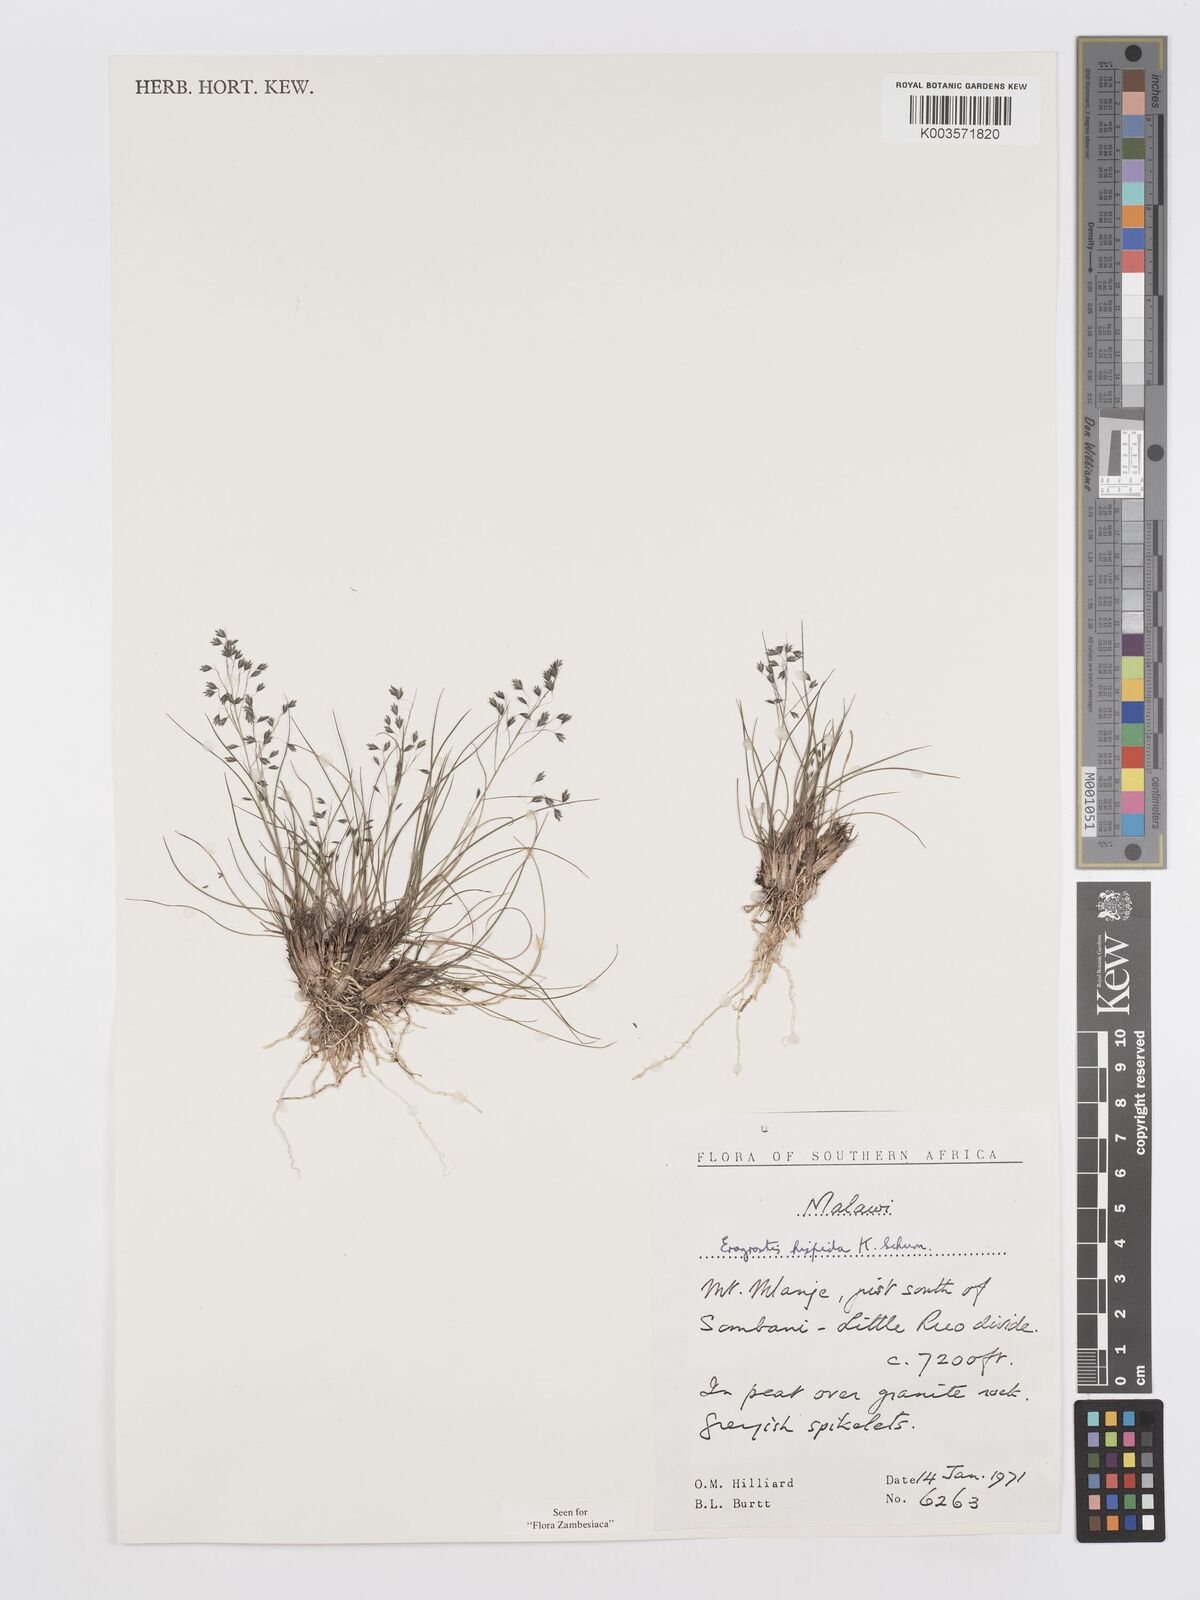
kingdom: Plantae
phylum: Tracheophyta
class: Liliopsida
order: Poales
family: Poaceae
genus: Eragrostis
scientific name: Eragrostis hispida
